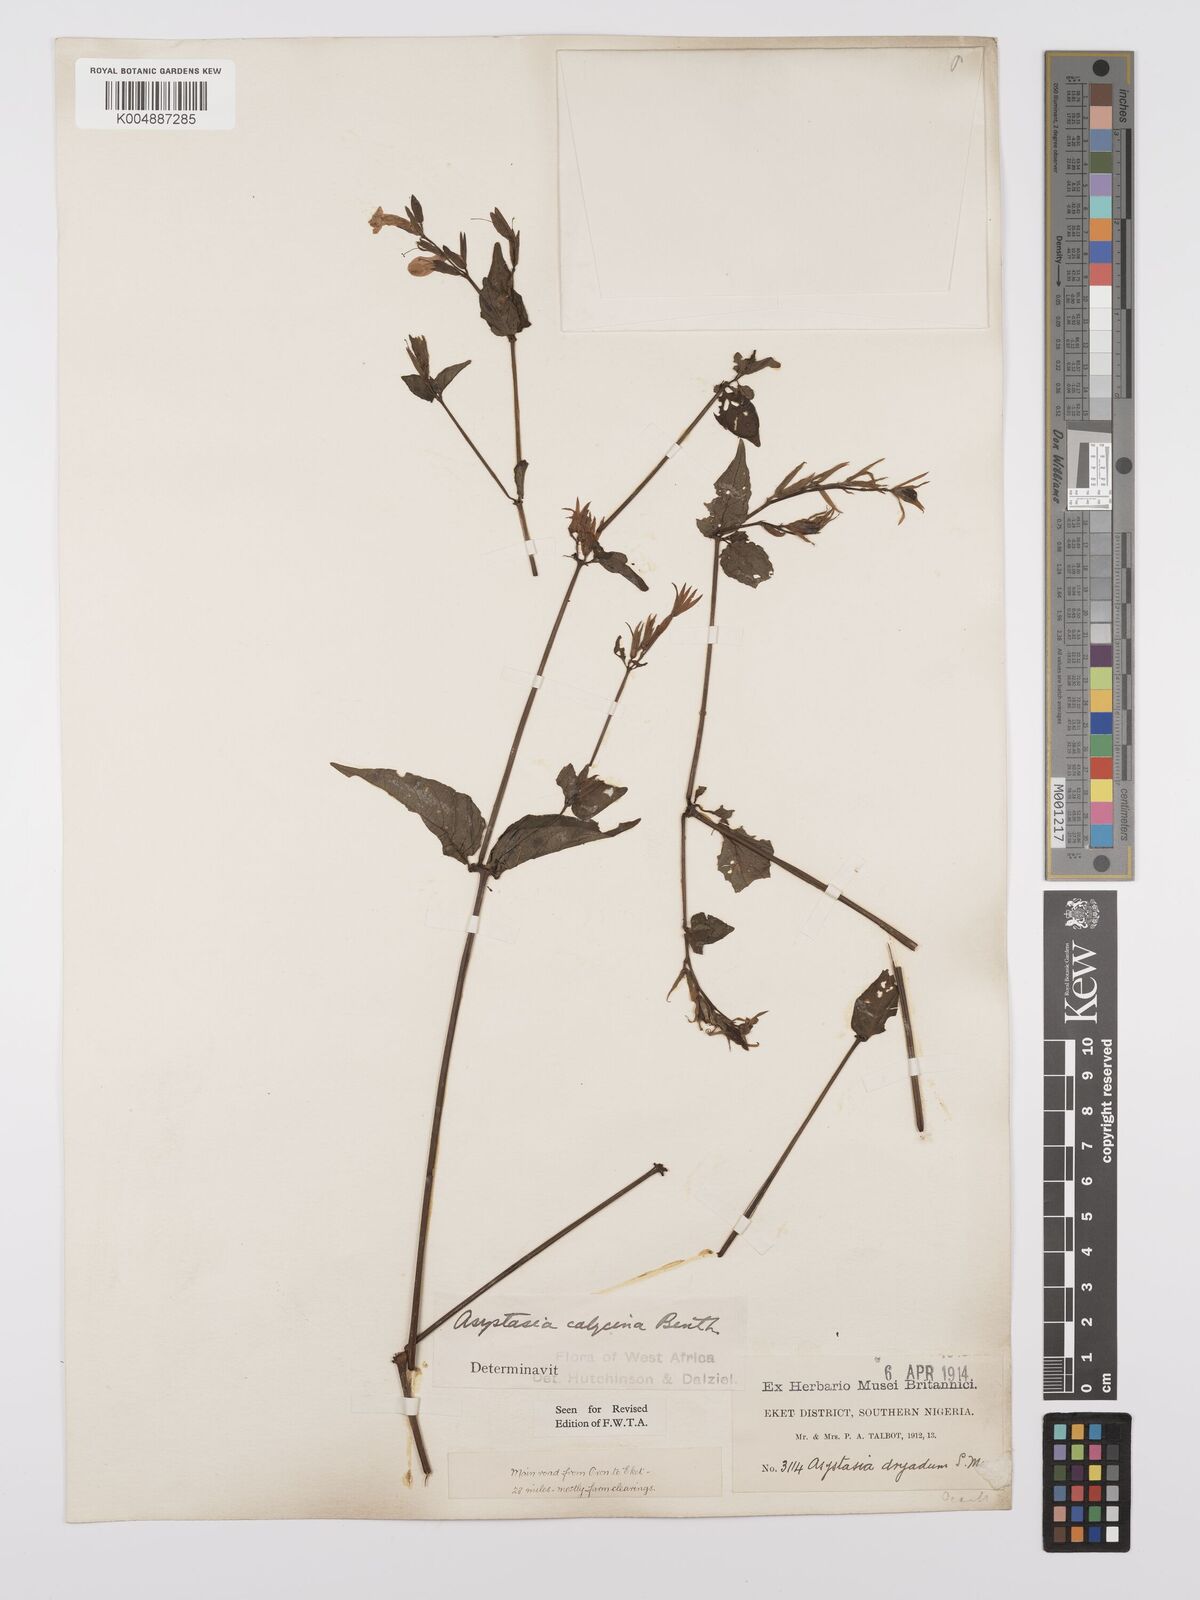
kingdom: Plantae
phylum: Tracheophyta
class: Magnoliopsida
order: Lamiales
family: Acanthaceae
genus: Asystasia
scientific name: Asystasia buettneri
